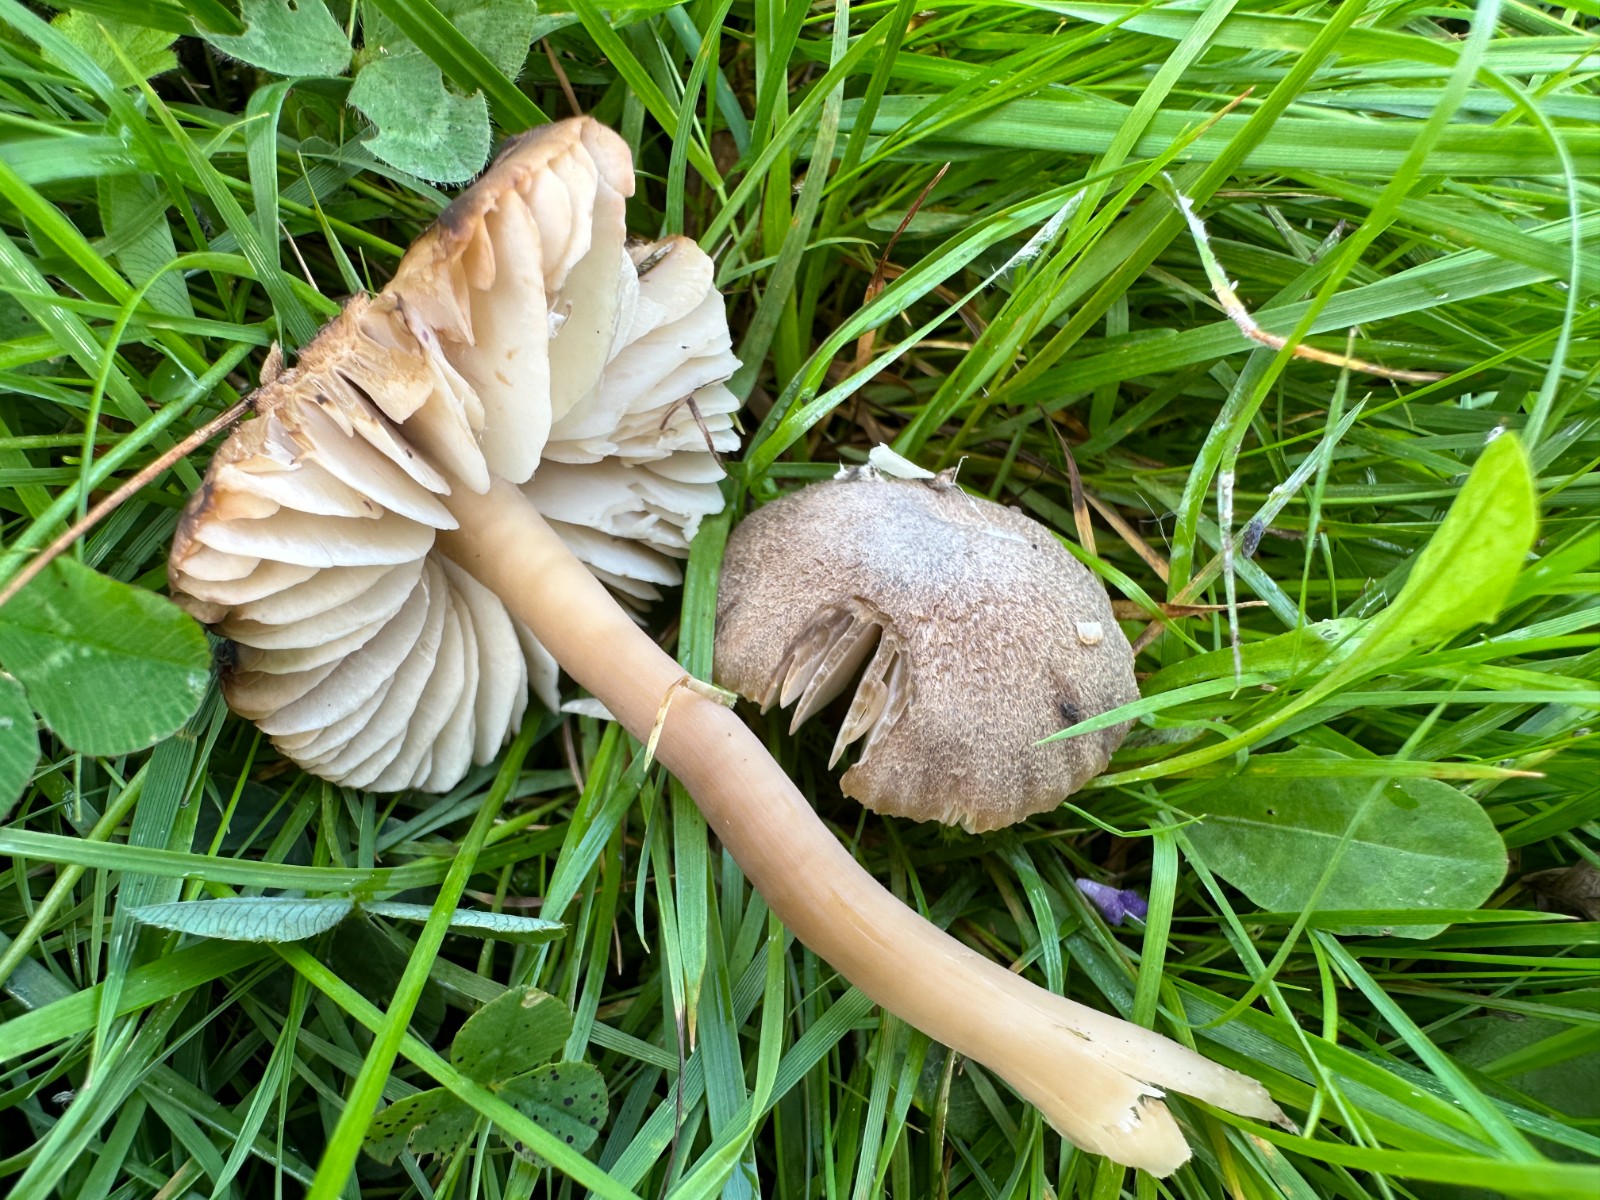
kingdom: Fungi
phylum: Basidiomycota
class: Agaricomycetes
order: Agaricales
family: Hygrophoraceae
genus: Neohygrocybe
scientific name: Neohygrocybe nitrata
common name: stinkende vokshat
